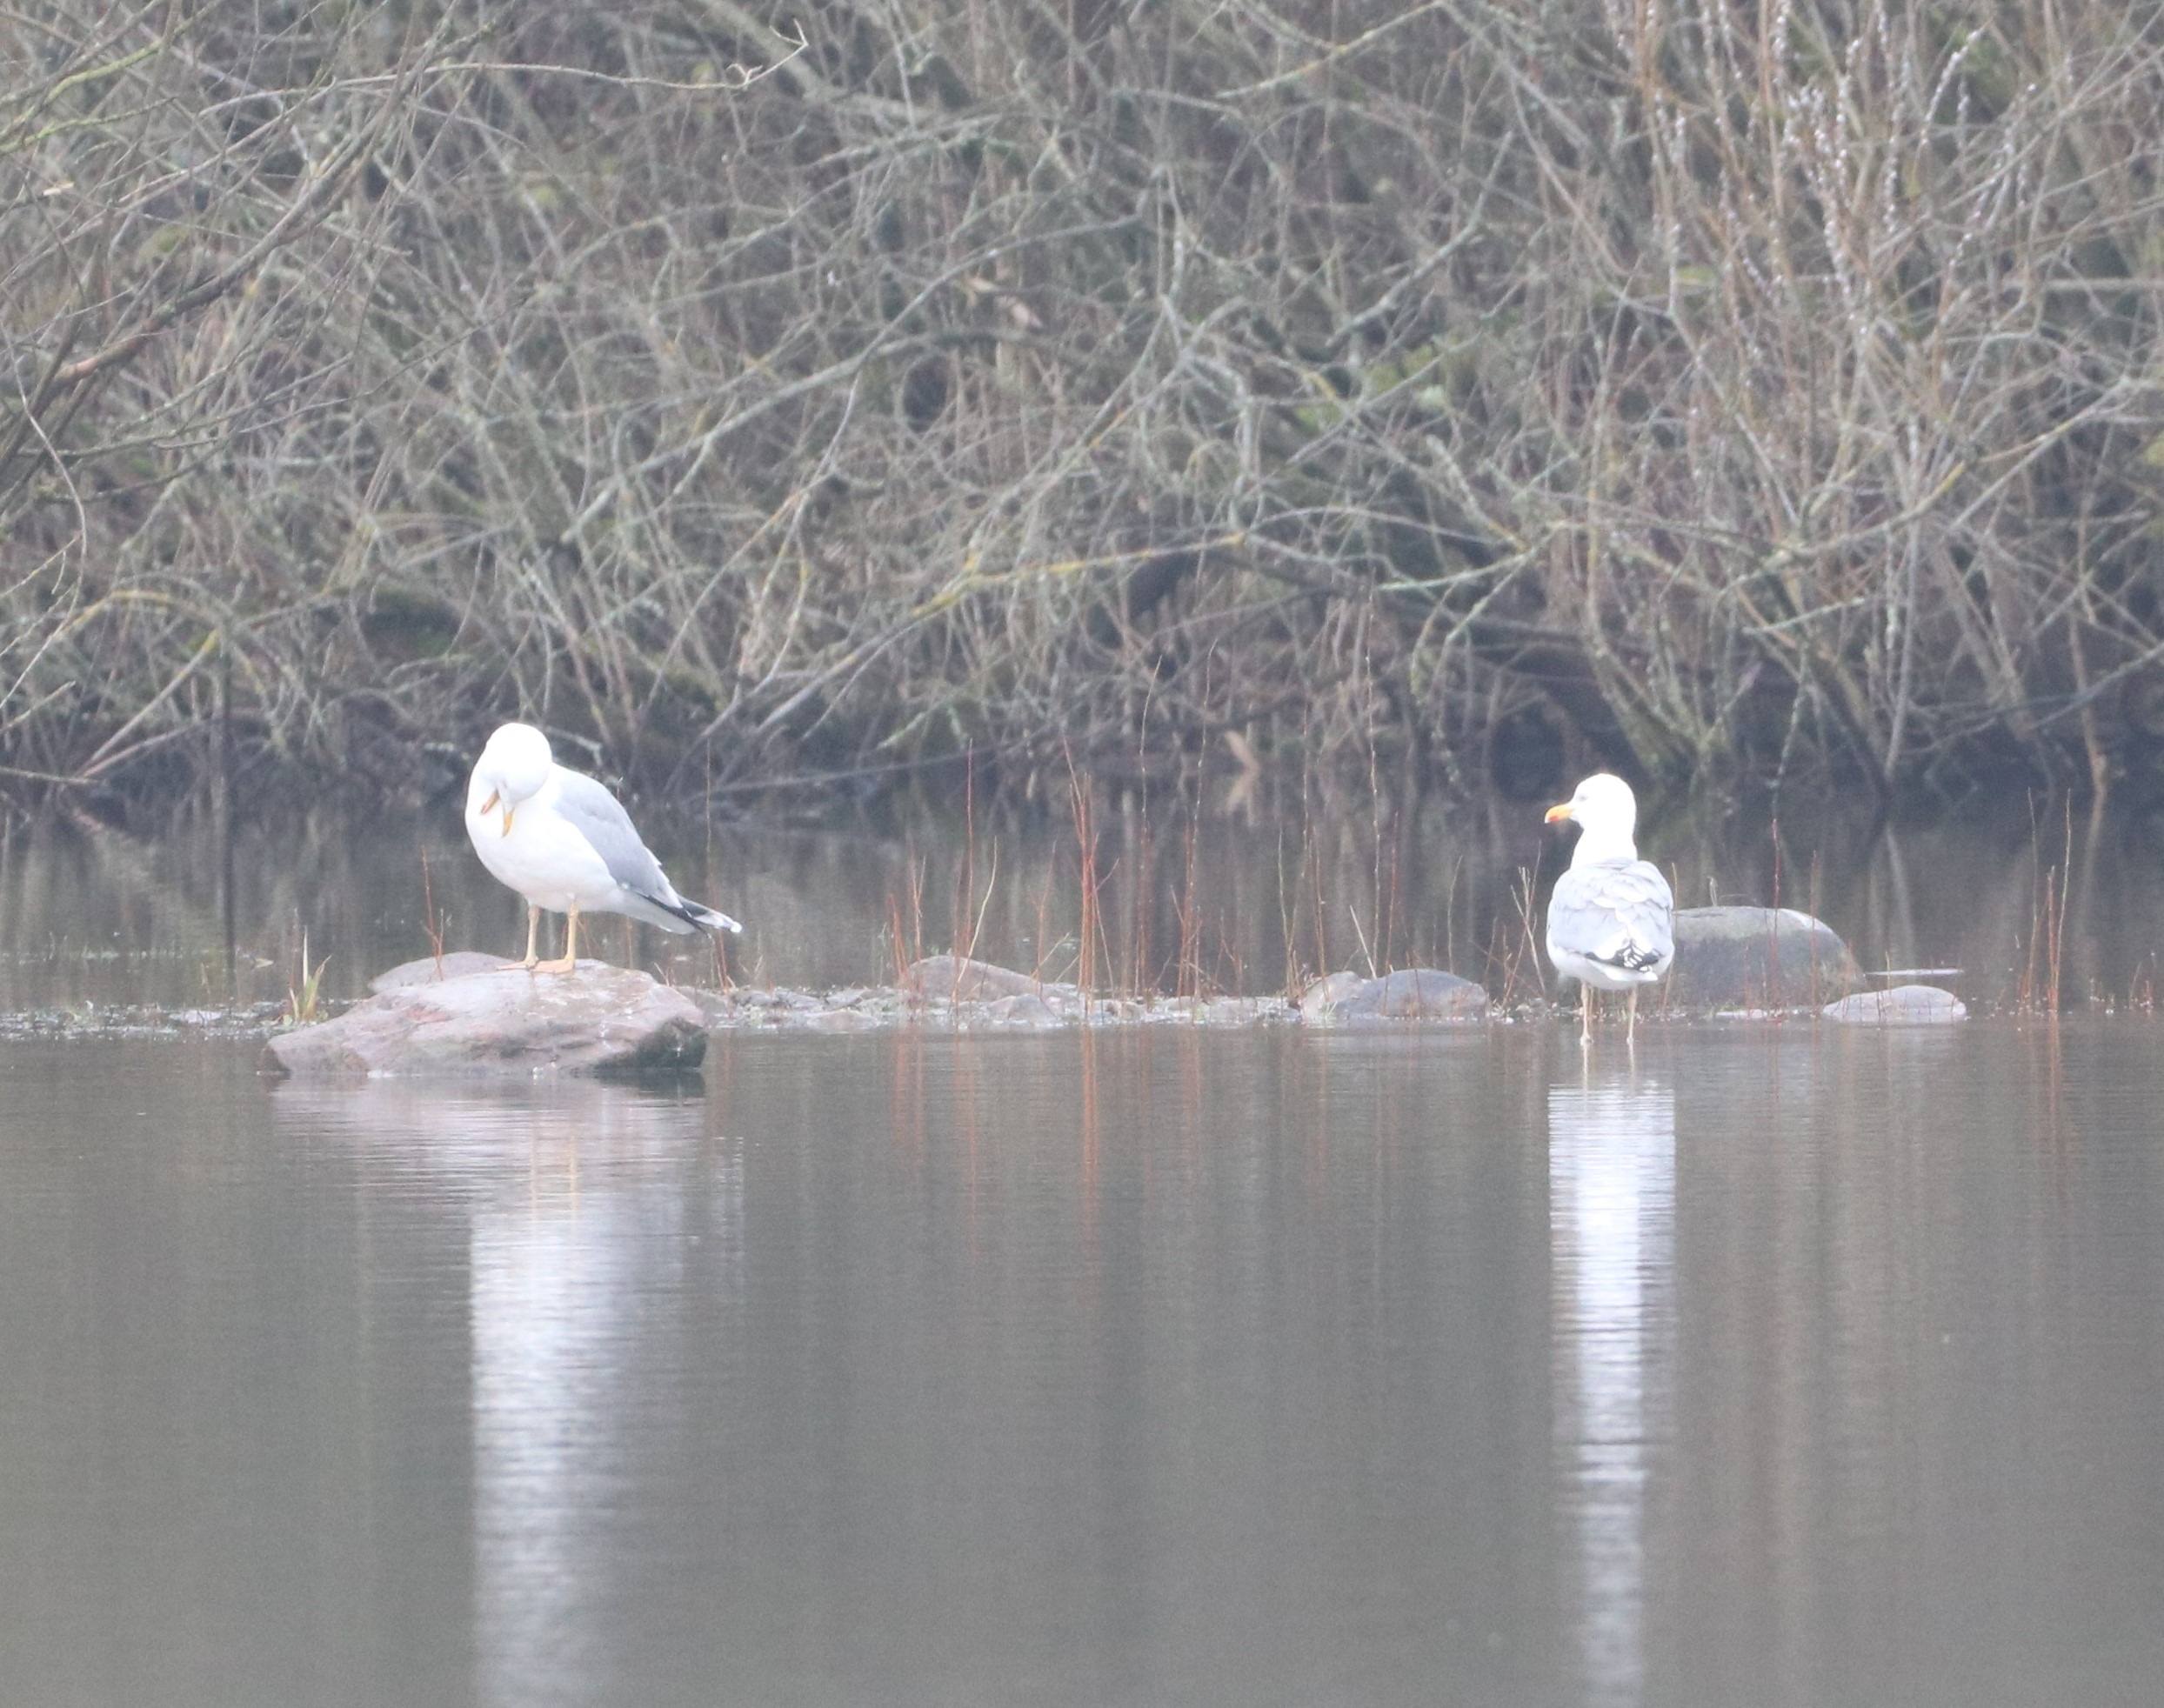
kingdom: Animalia
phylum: Chordata
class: Aves
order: Charadriiformes
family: Laridae
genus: Larus
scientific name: Larus argentatus
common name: Sølvmåge
